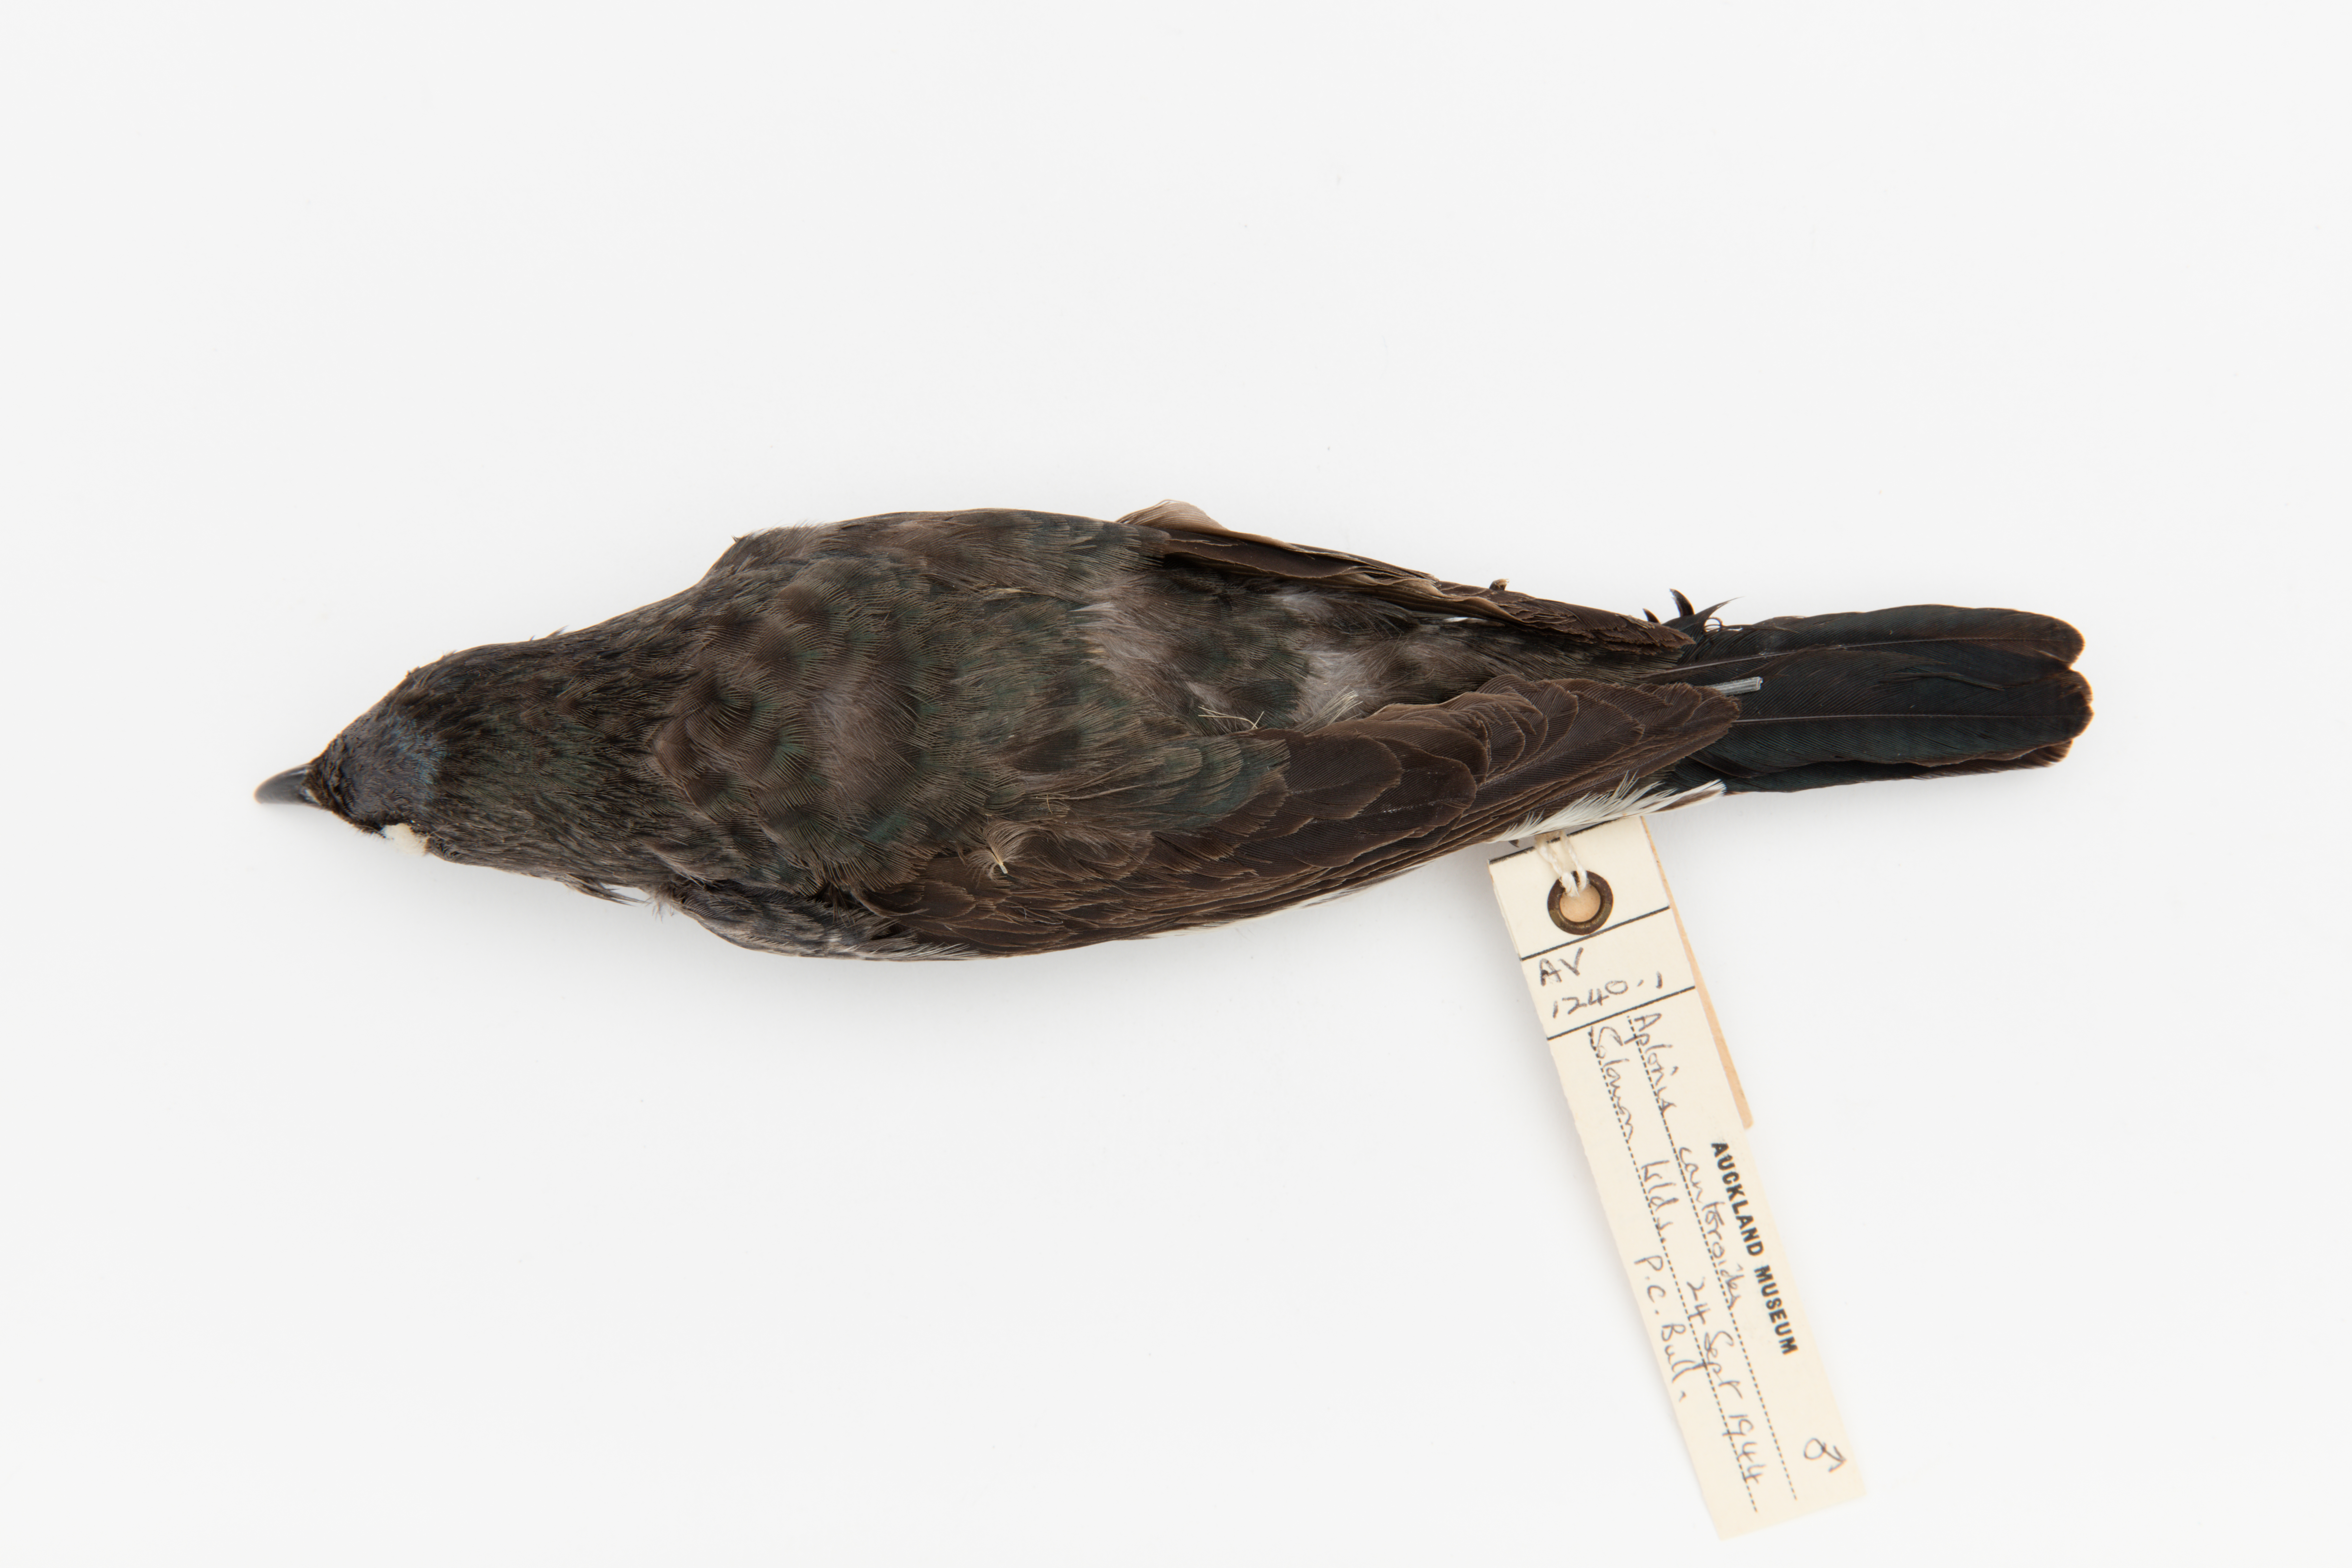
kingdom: Animalia
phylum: Chordata
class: Aves
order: Passeriformes
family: Sturnidae
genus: Aplonis
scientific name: Aplonis cantoroides
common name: Singing starling
